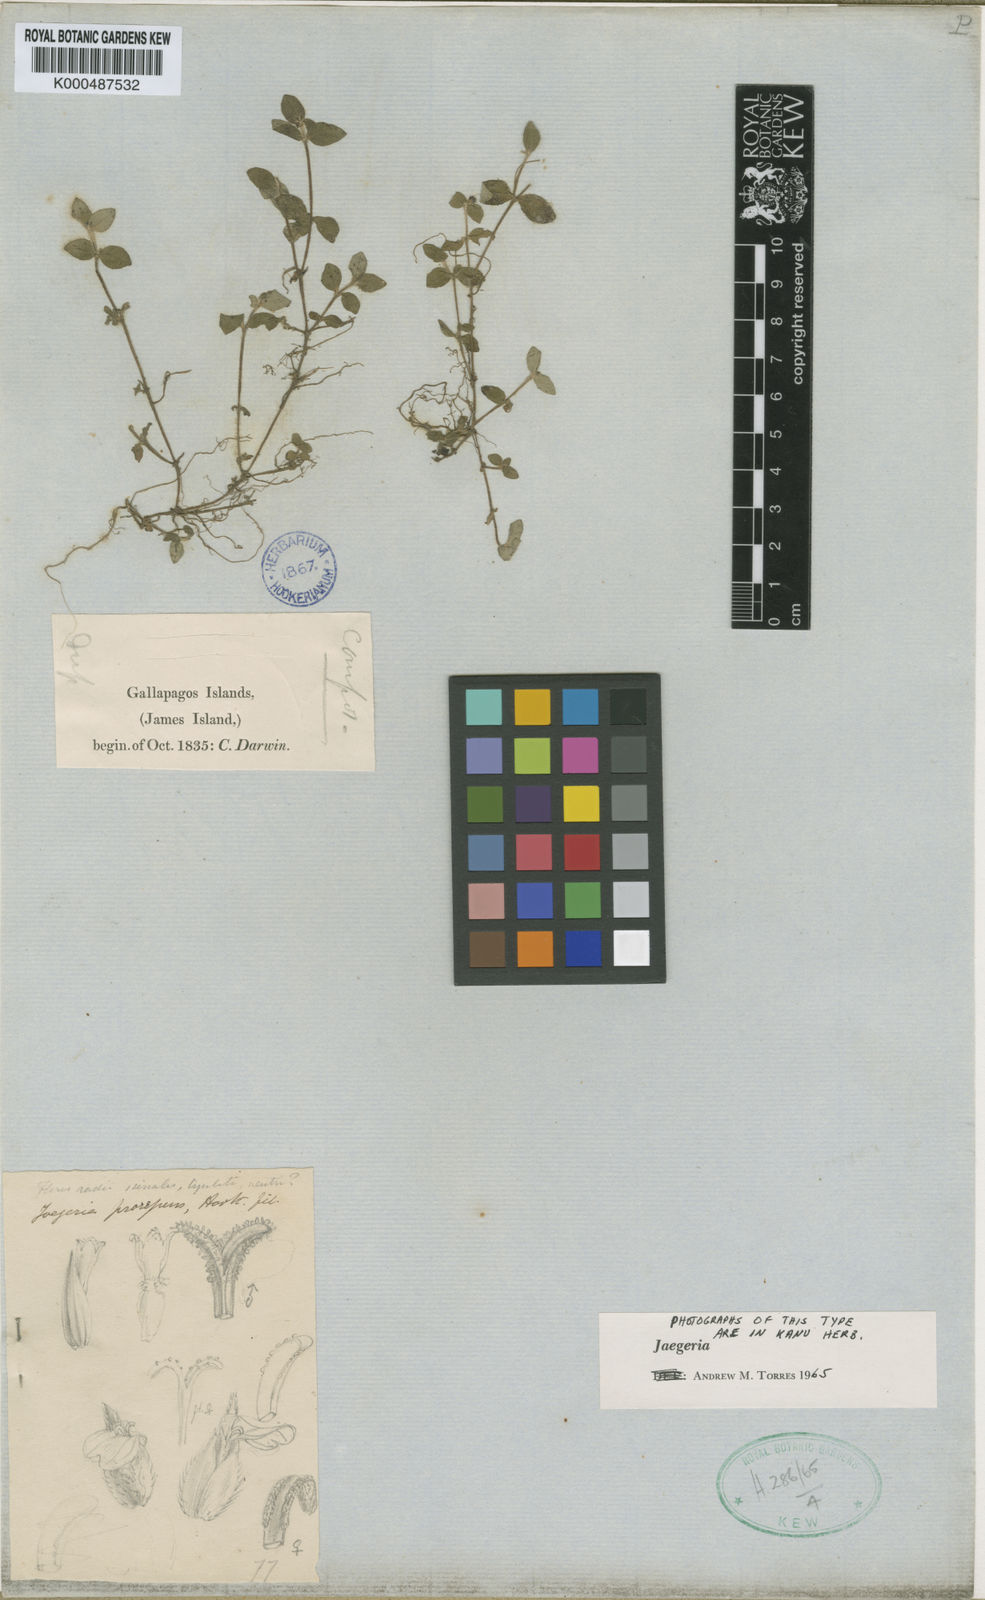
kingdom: Plantae
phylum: Tracheophyta
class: Magnoliopsida
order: Asterales
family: Asteraceae
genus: Jaegeria
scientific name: Jaegeria gracilis
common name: Galapagos jaegeria
